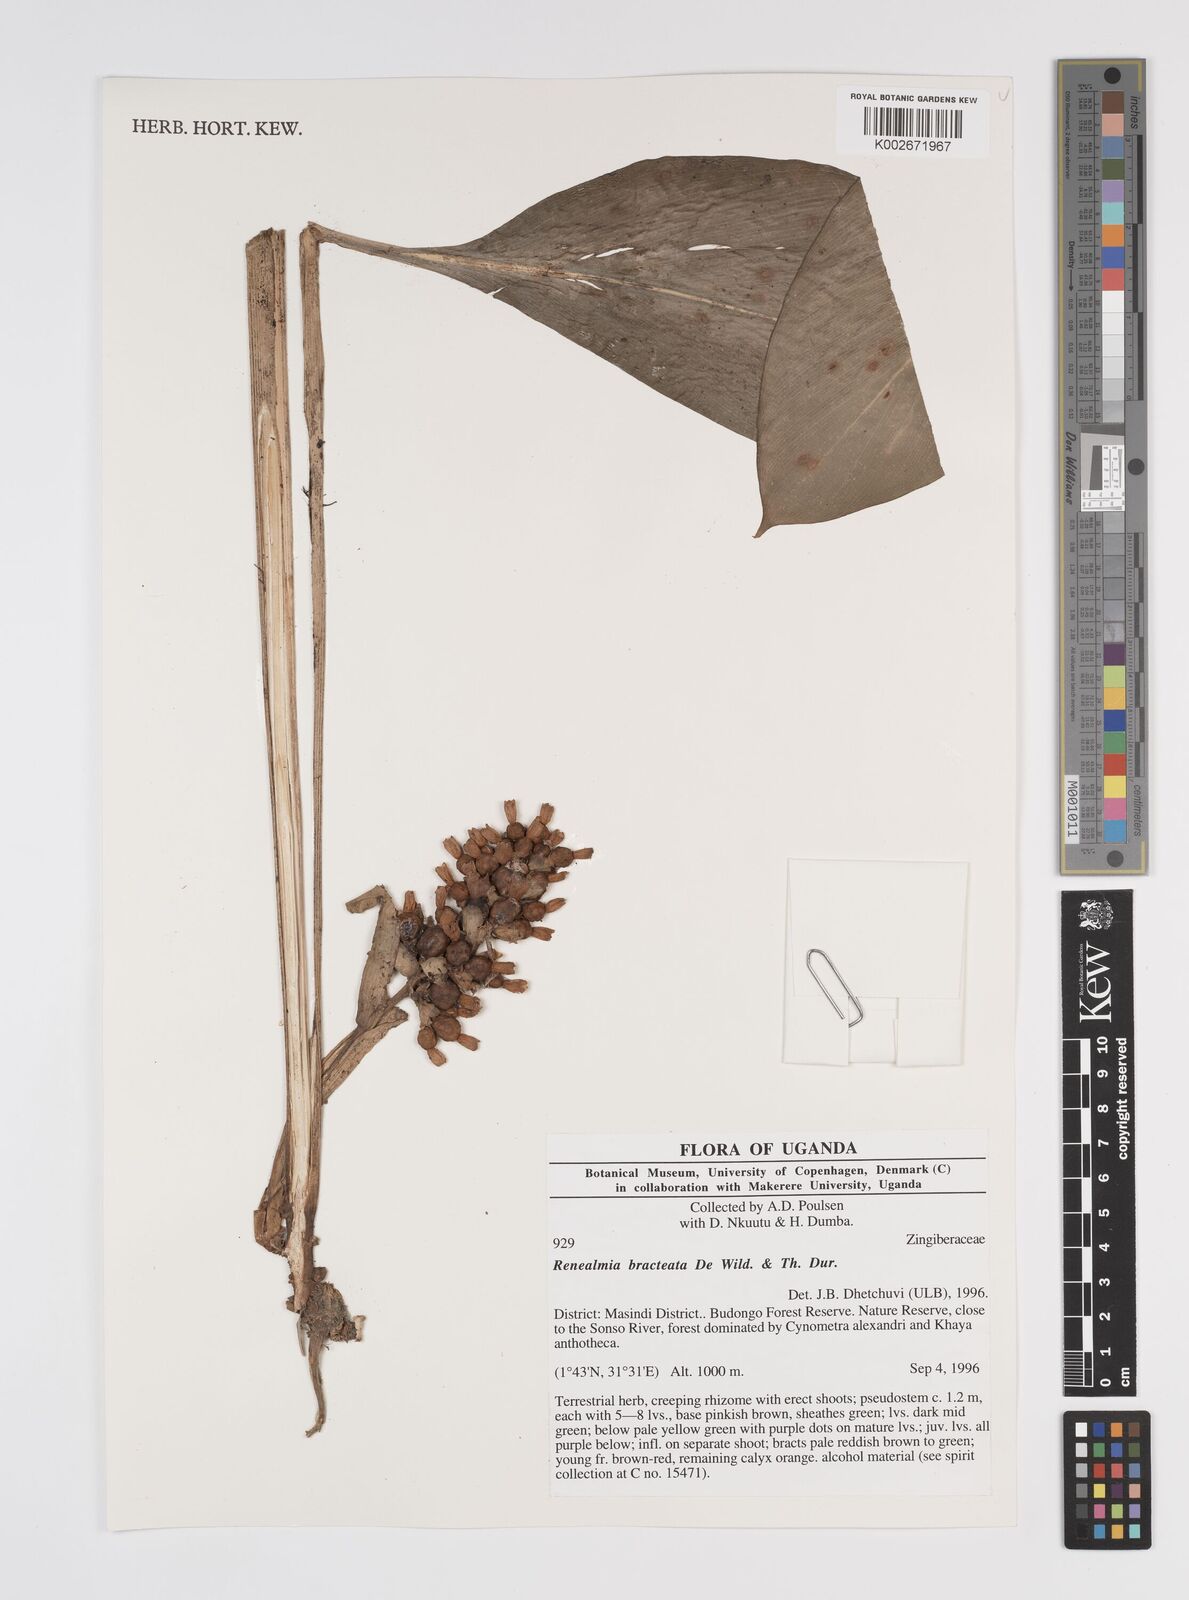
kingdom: Plantae
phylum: Tracheophyta
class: Liliopsida
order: Zingiberales
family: Zingiberaceae
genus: Renealmia
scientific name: Renealmia bracteata
